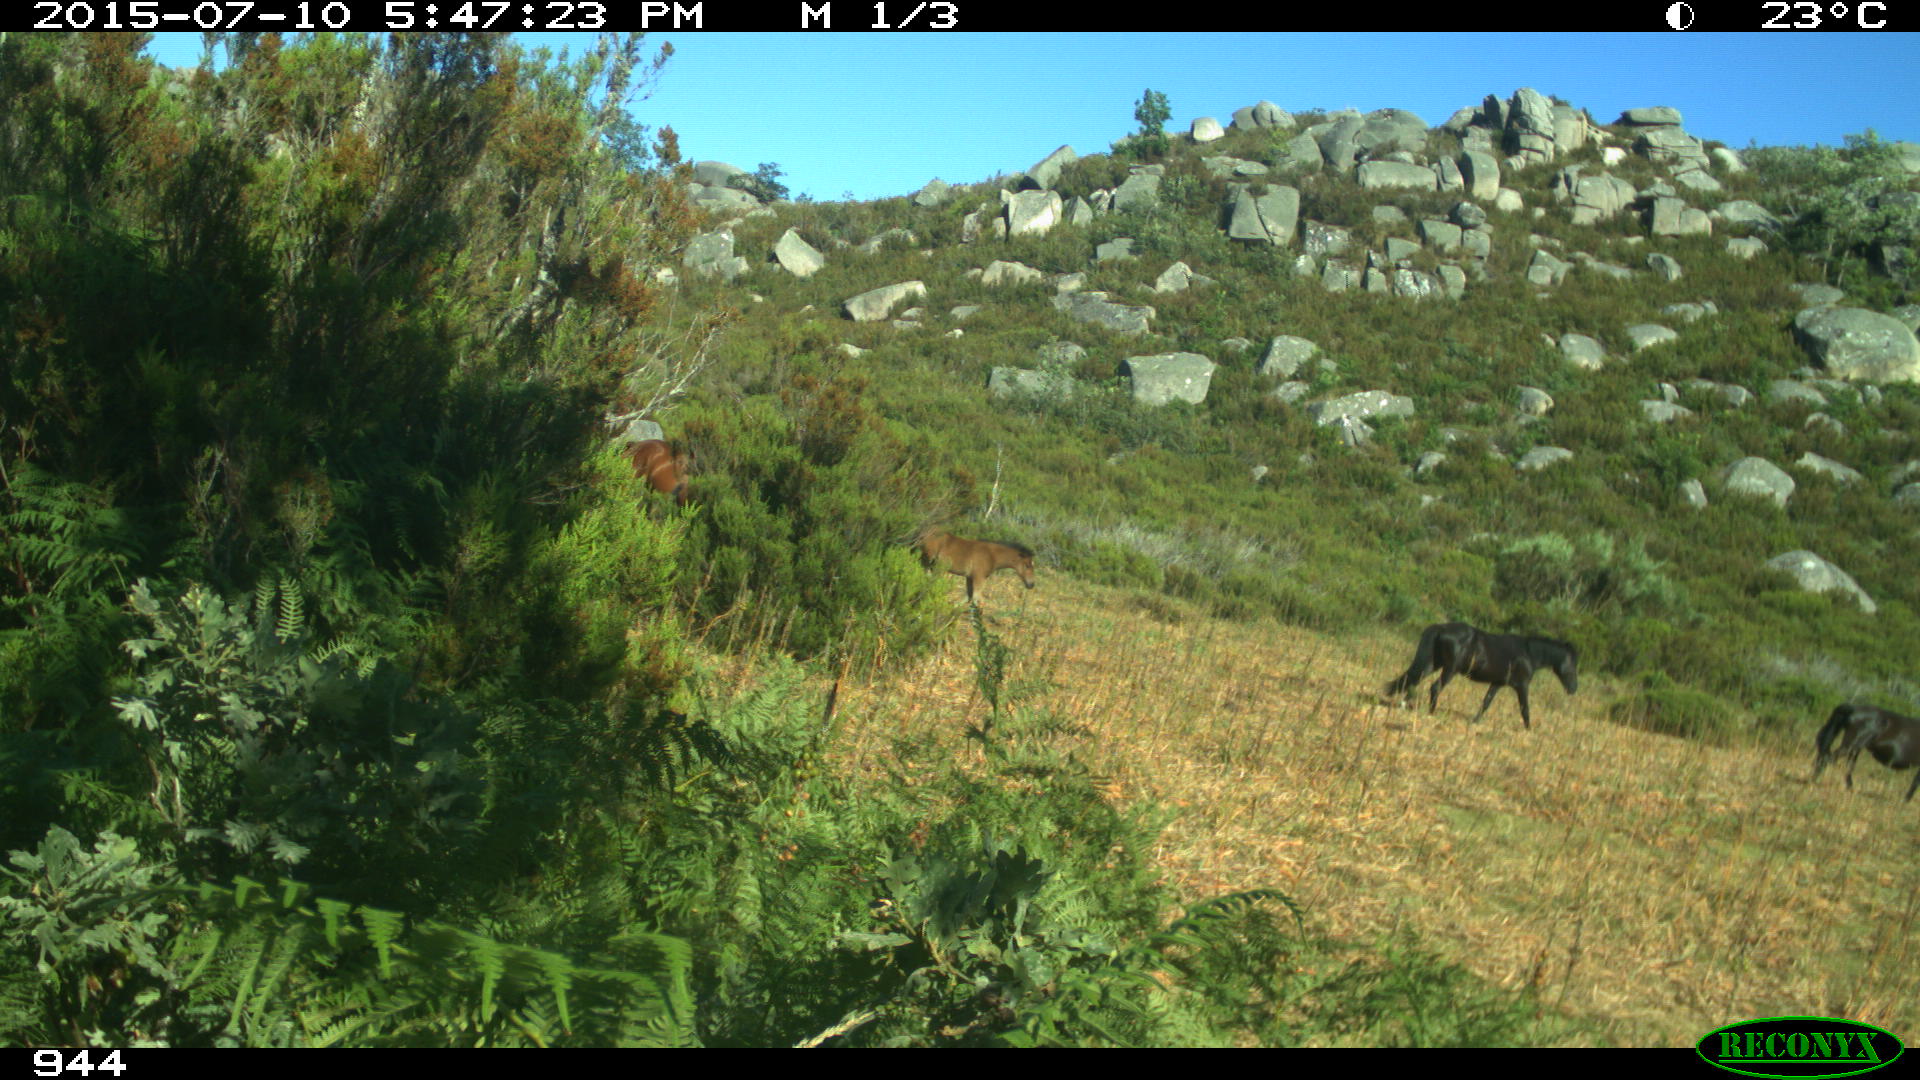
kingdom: Animalia
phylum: Chordata
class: Mammalia
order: Perissodactyla
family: Equidae
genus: Equus
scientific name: Equus caballus
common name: Horse
